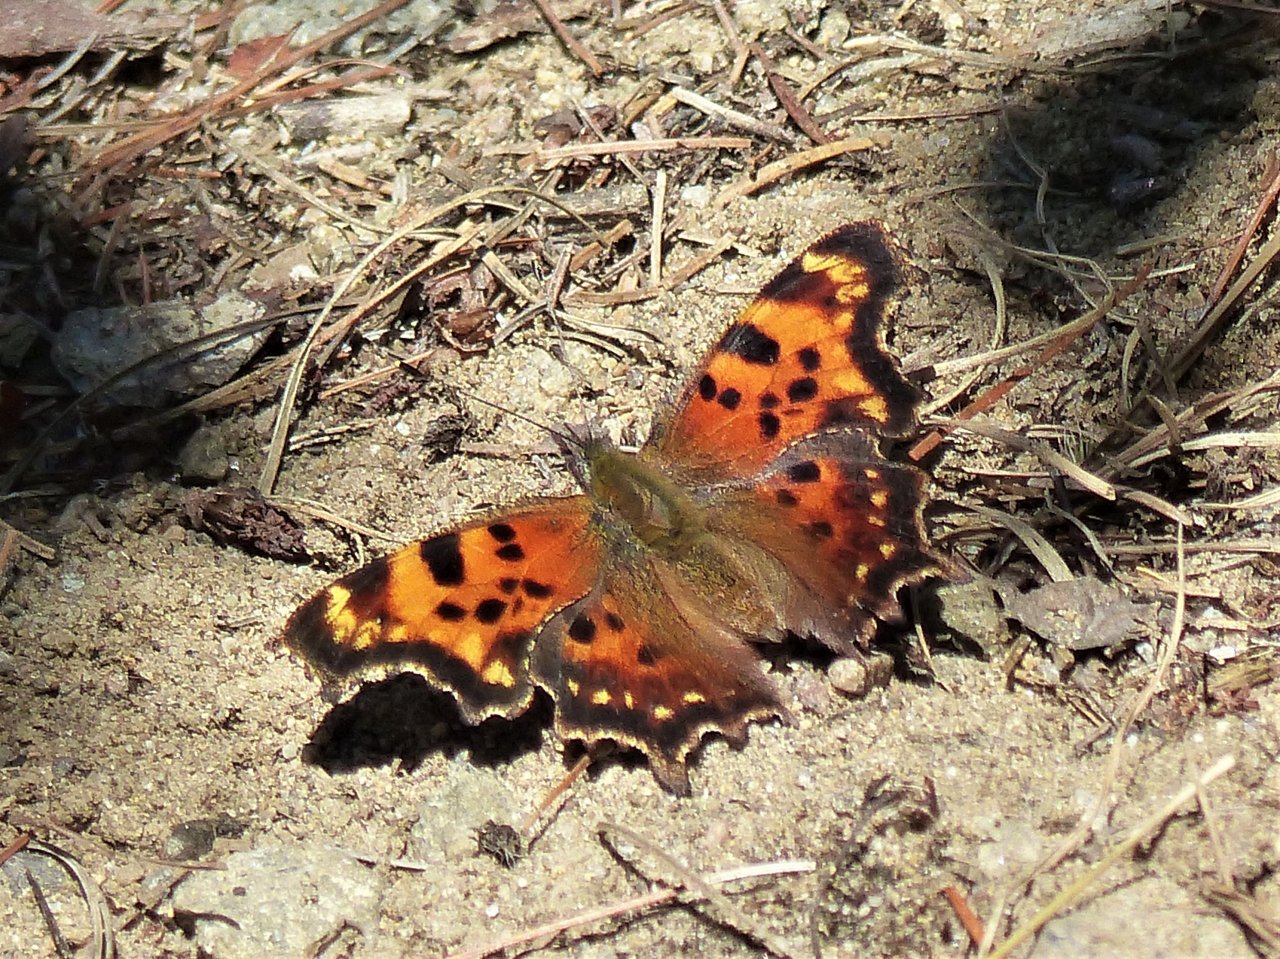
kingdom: Animalia
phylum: Arthropoda
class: Insecta
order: Lepidoptera
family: Nymphalidae
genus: Polygonia
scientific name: Polygonia faunus
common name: Green Comma
